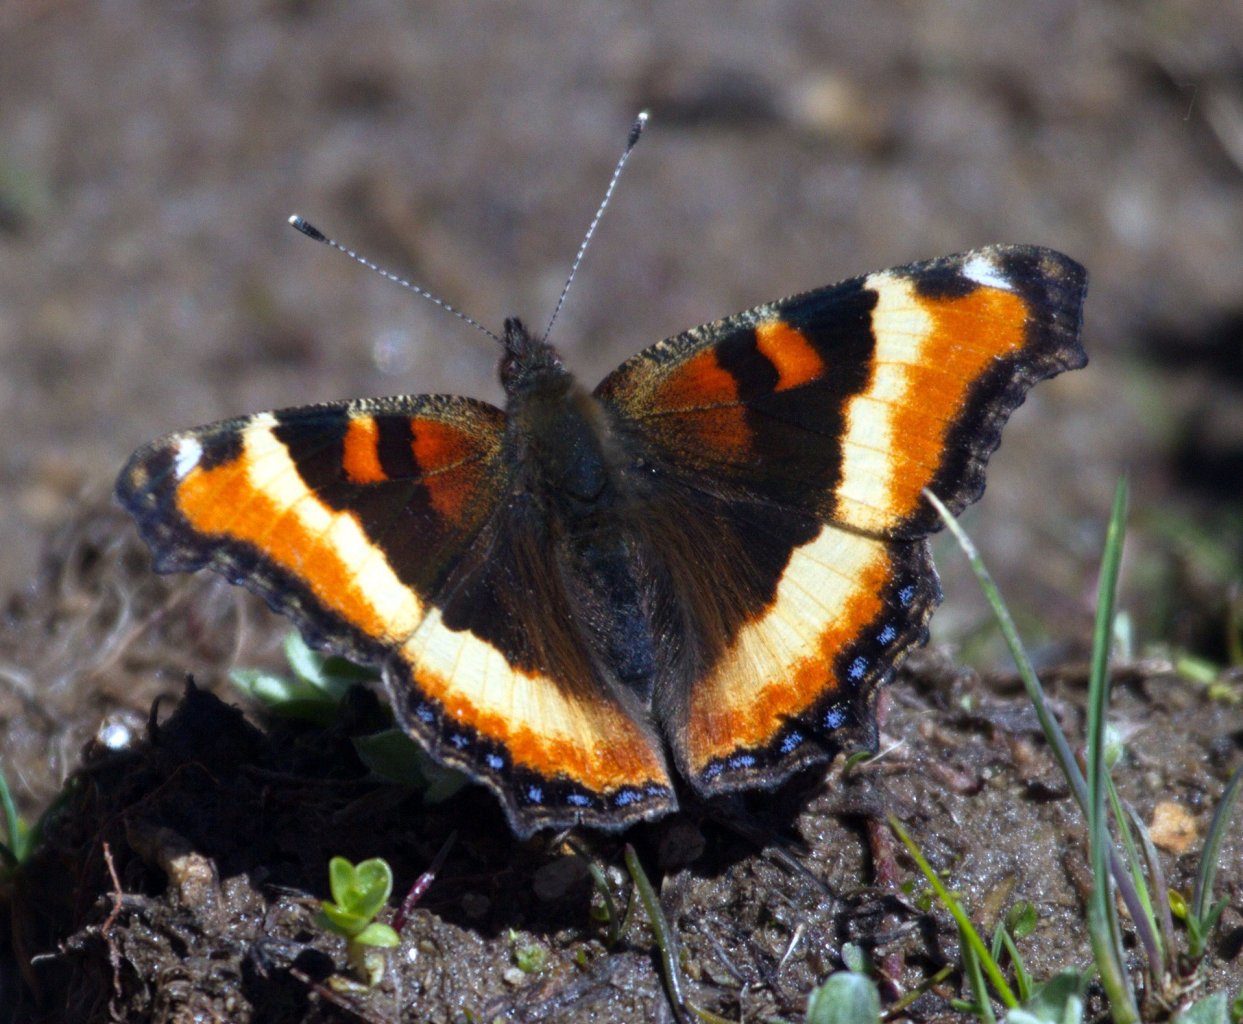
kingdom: Animalia
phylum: Arthropoda
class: Insecta
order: Lepidoptera
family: Nymphalidae
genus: Aglais
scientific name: Aglais milberti
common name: Milbert's Tortoiseshell
